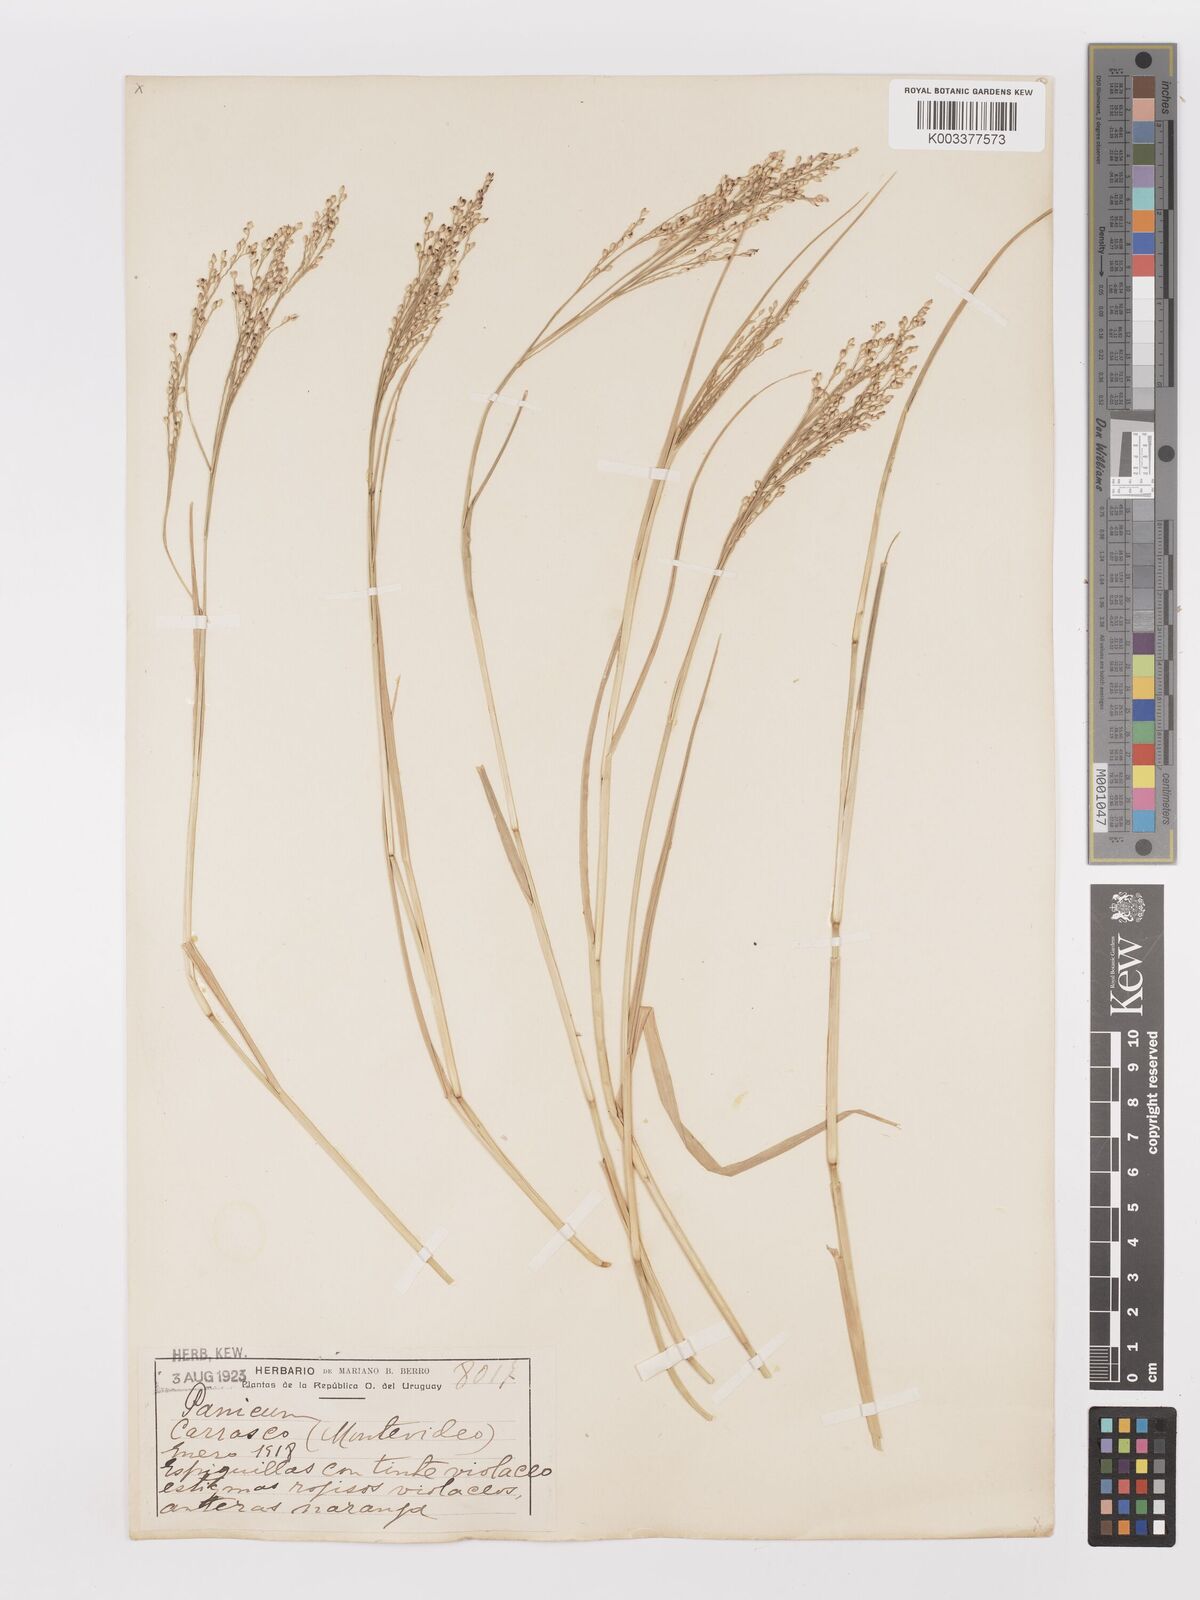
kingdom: Plantae
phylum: Tracheophyta
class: Liliopsida
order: Poales
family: Poaceae
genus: Urochloa
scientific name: Urochloa rudis
